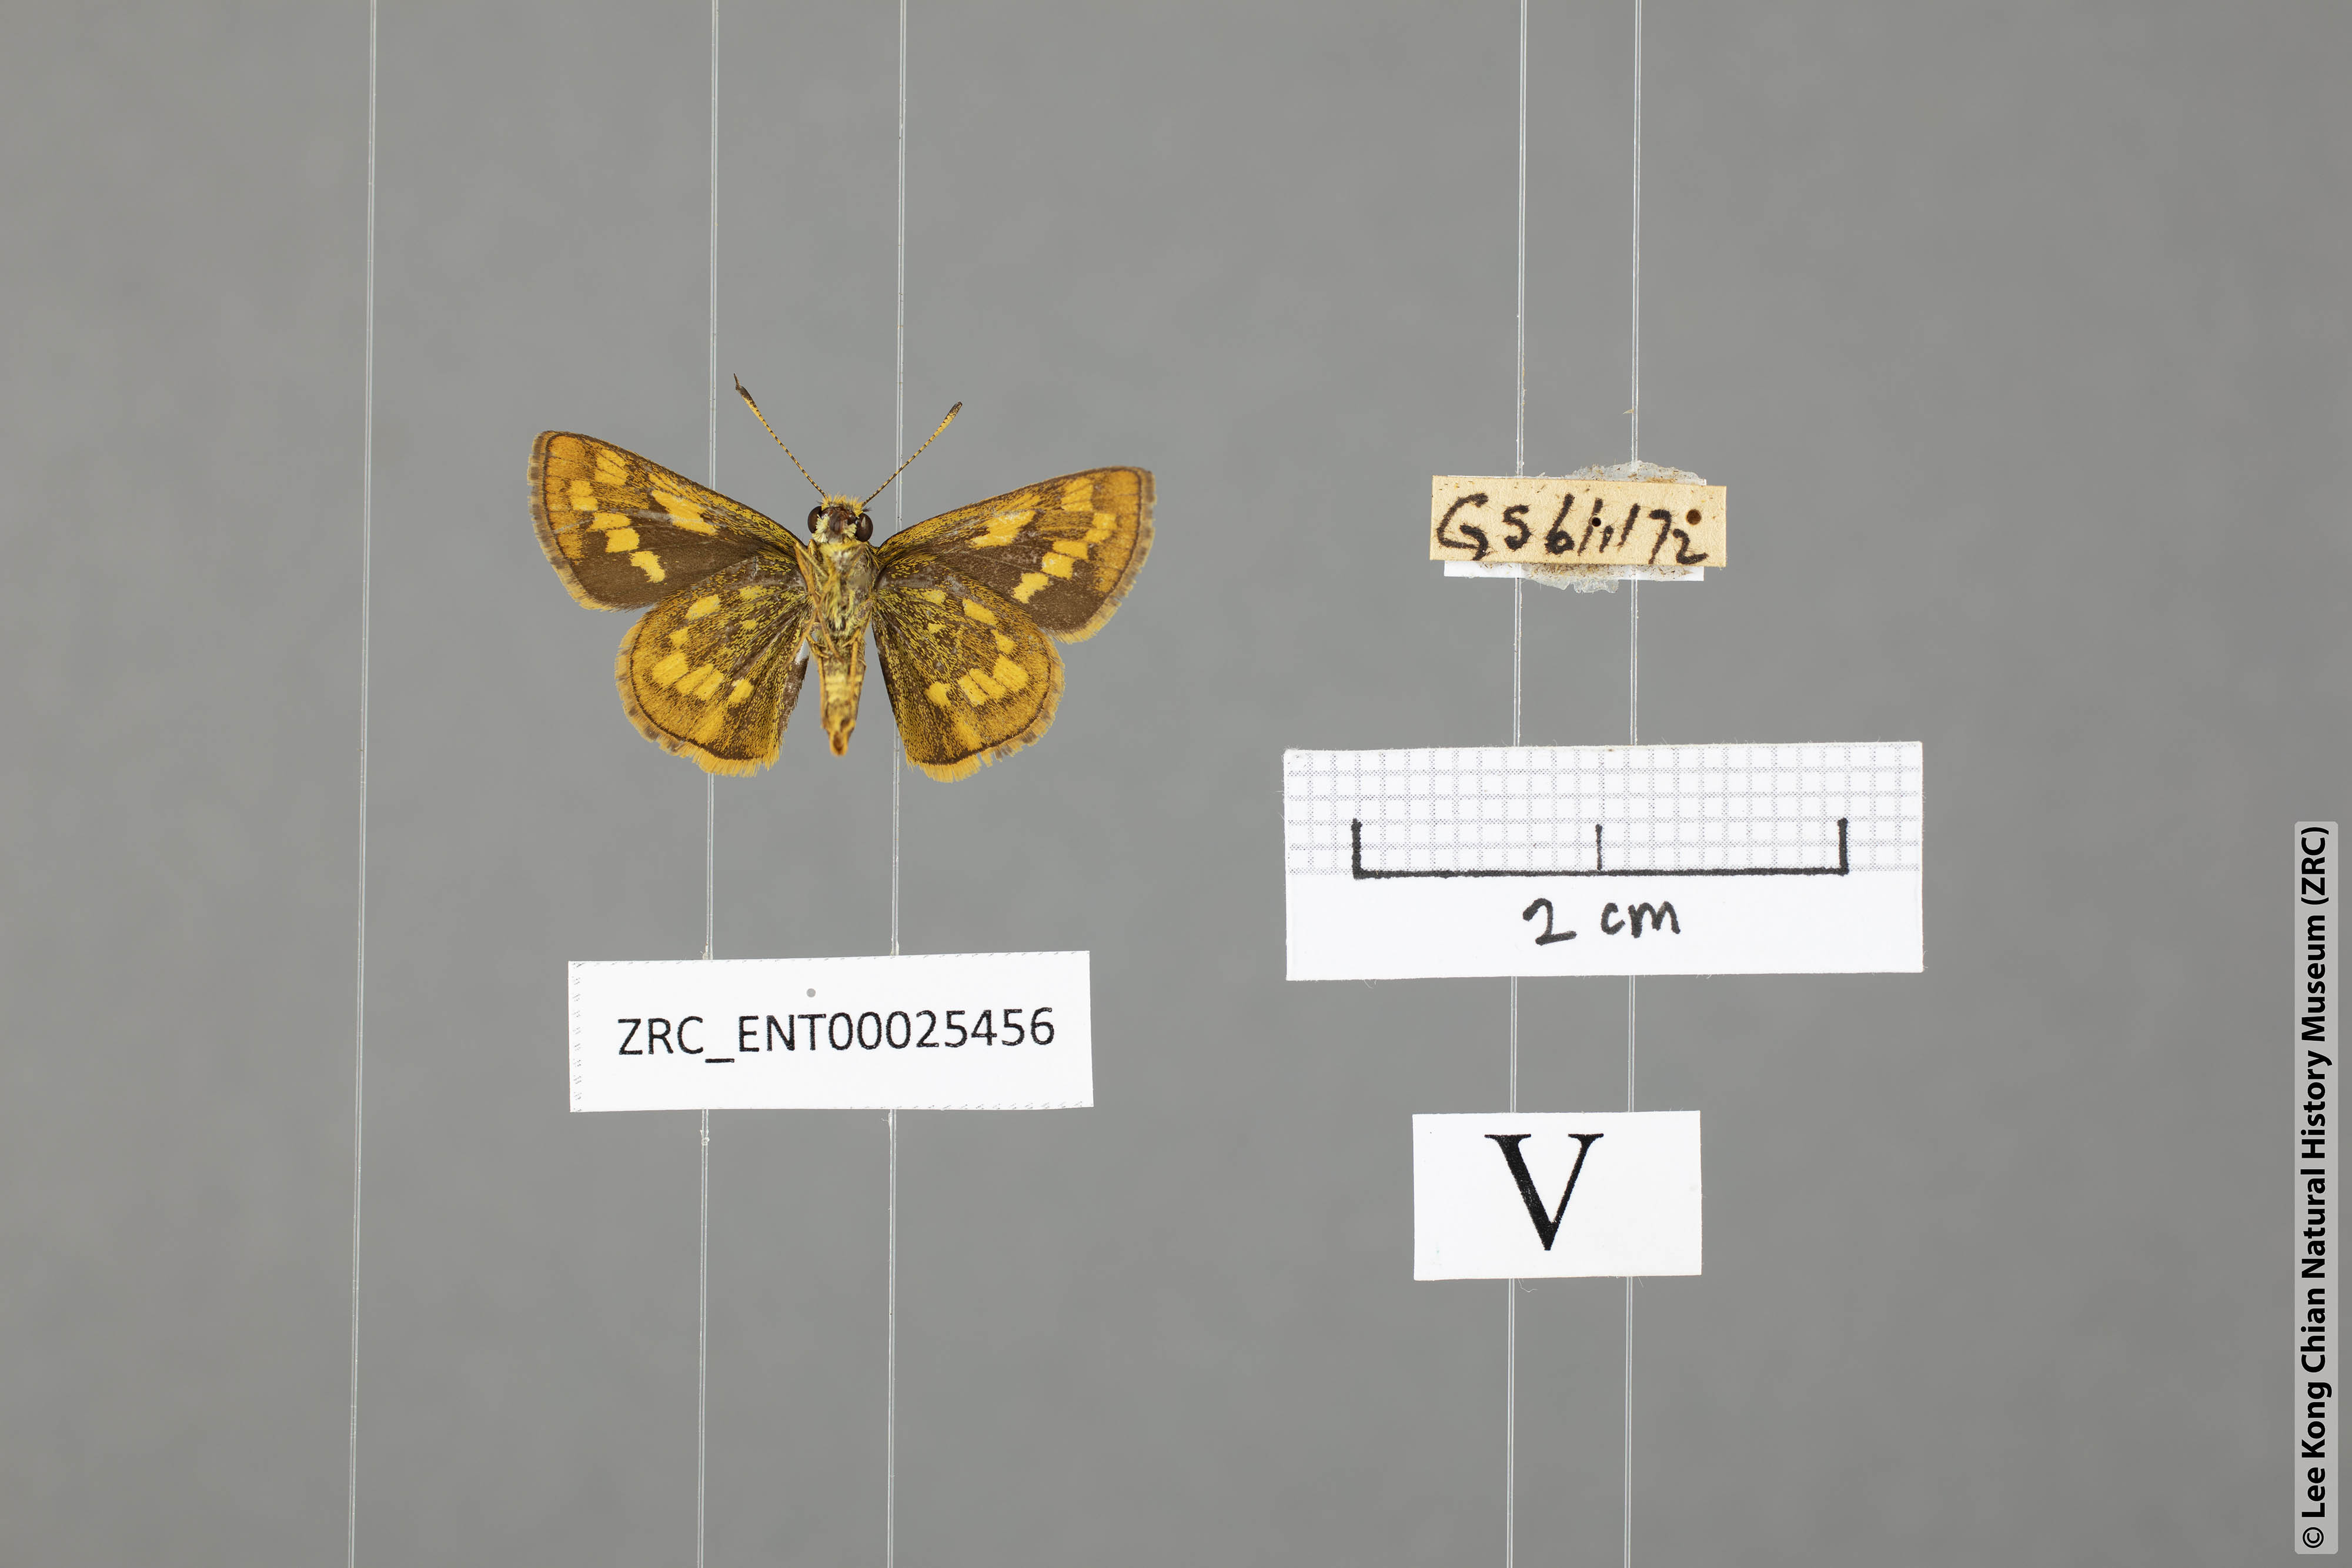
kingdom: Animalia
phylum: Arthropoda
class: Insecta
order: Lepidoptera
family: Hesperiidae
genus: Potanthus
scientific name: Potanthus omaha
